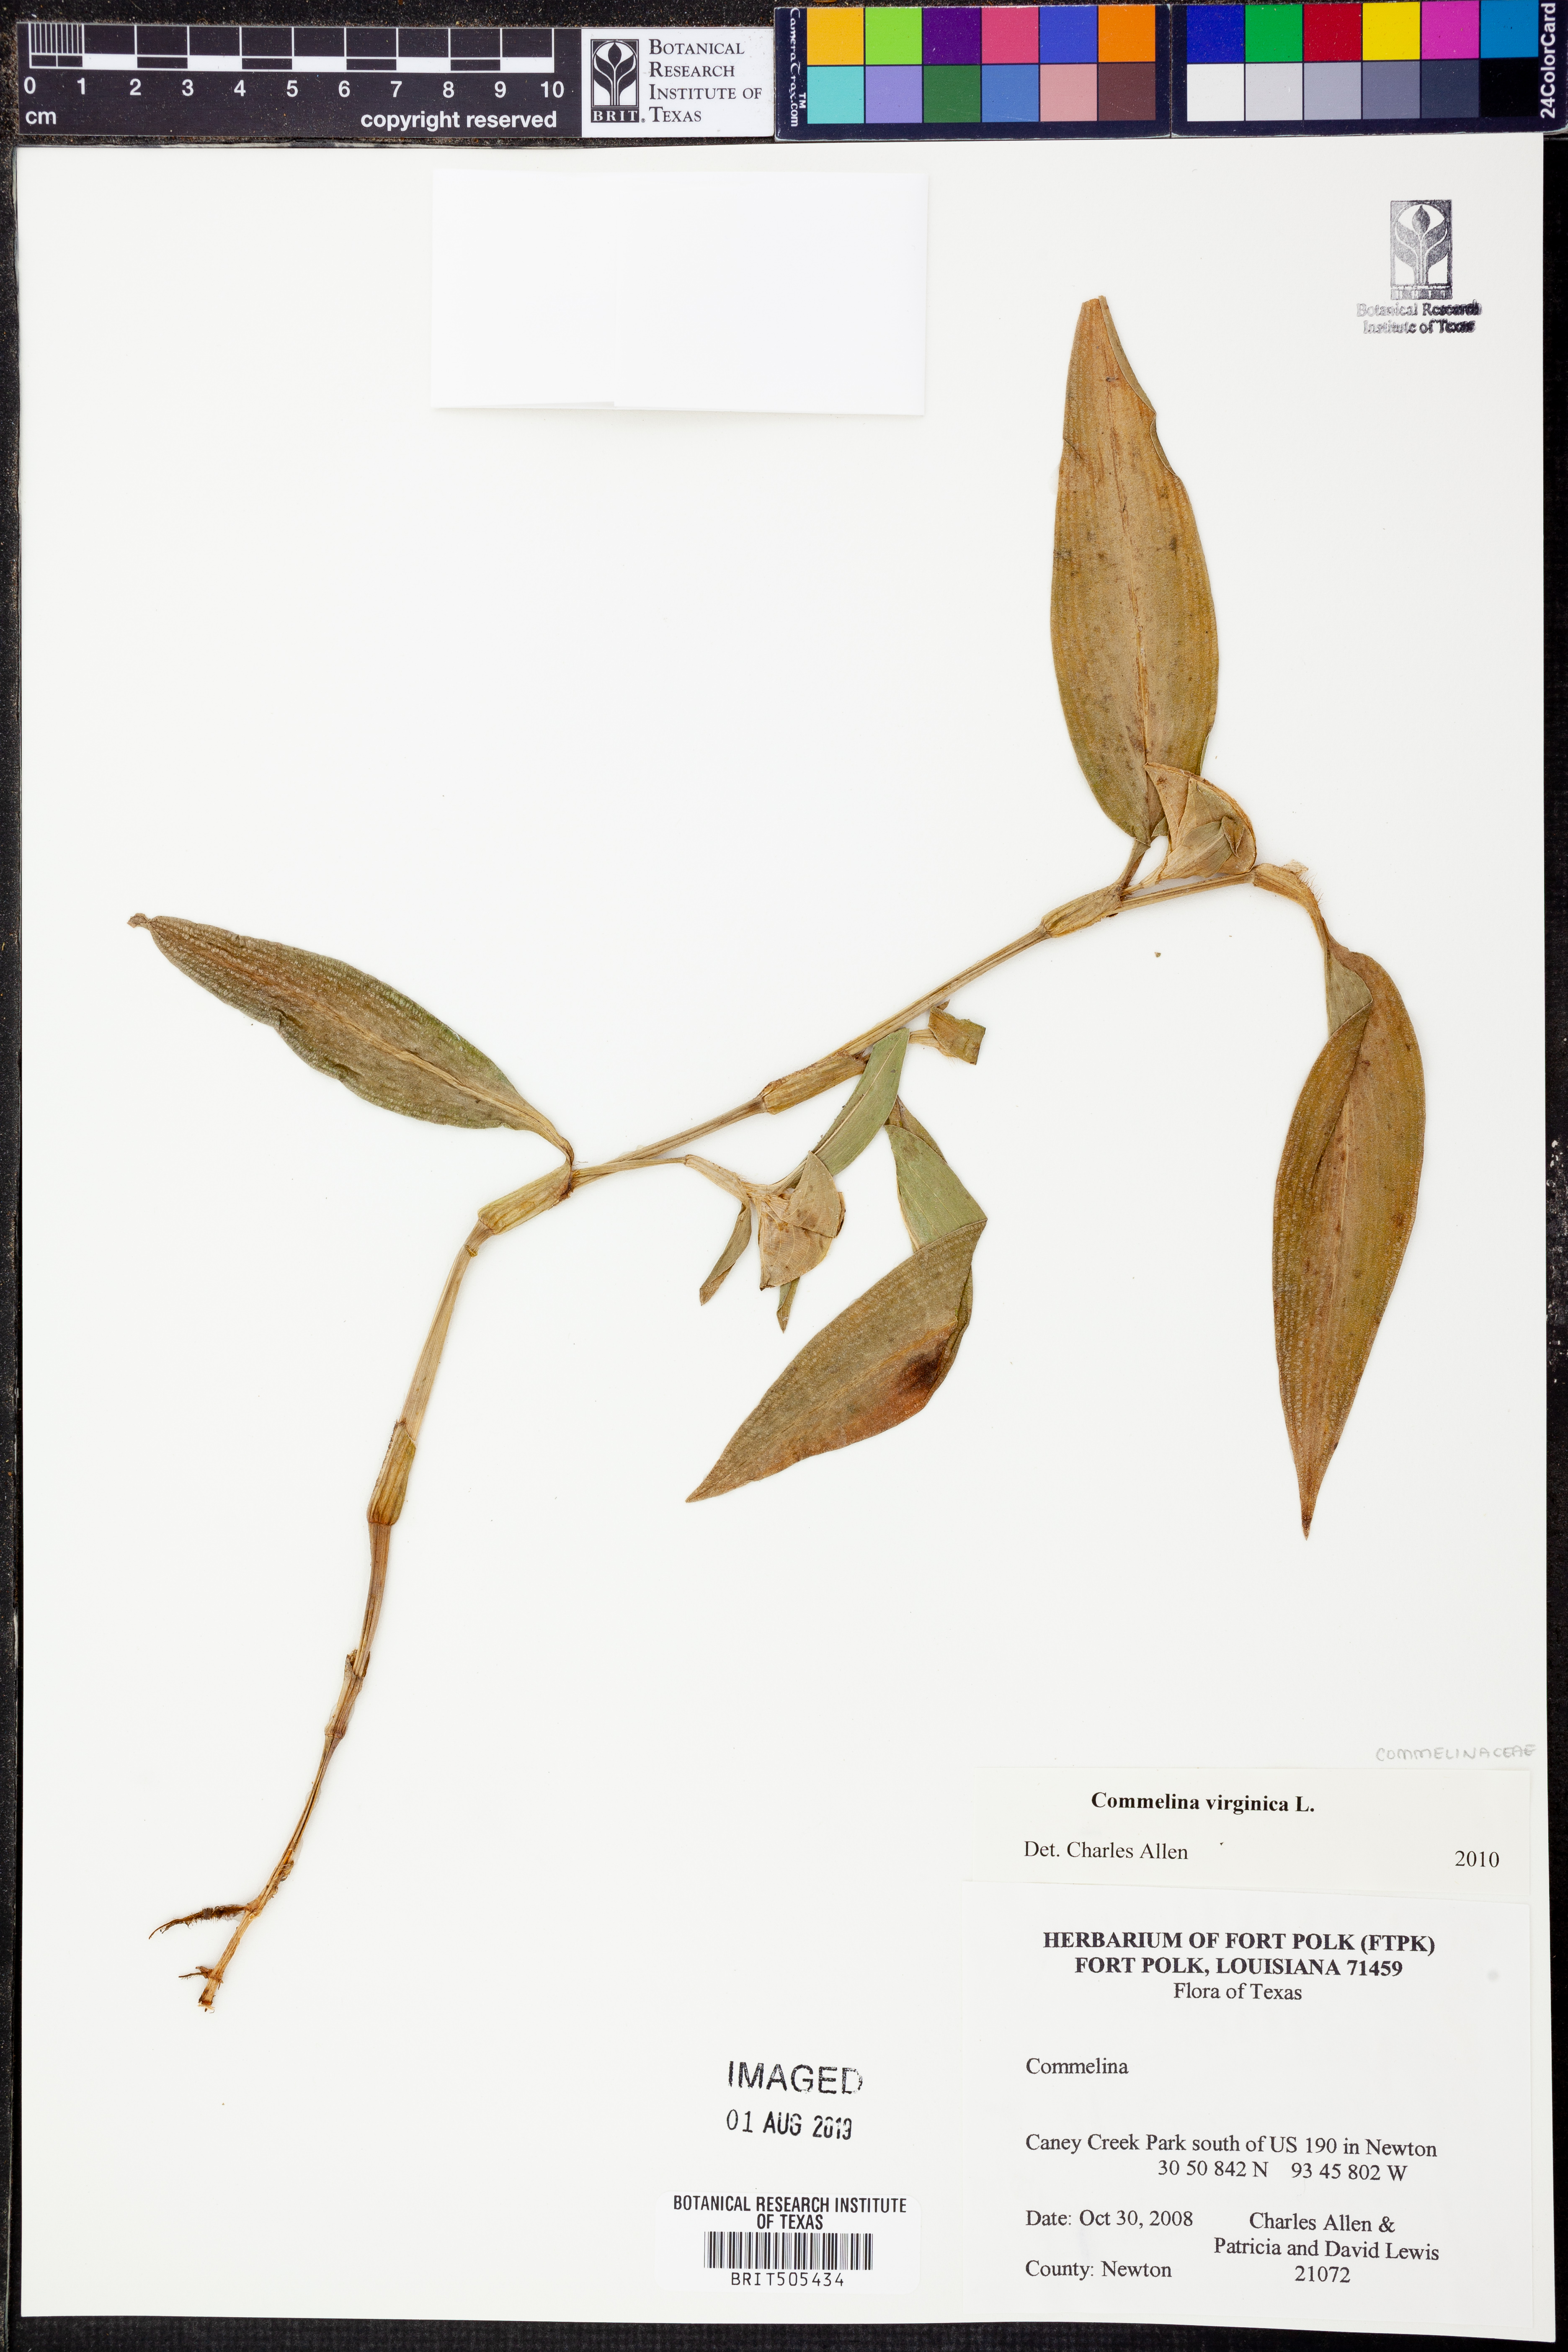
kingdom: Plantae
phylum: Tracheophyta
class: Liliopsida
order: Commelinales
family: Commelinaceae
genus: Commelina
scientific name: Commelina virginica
